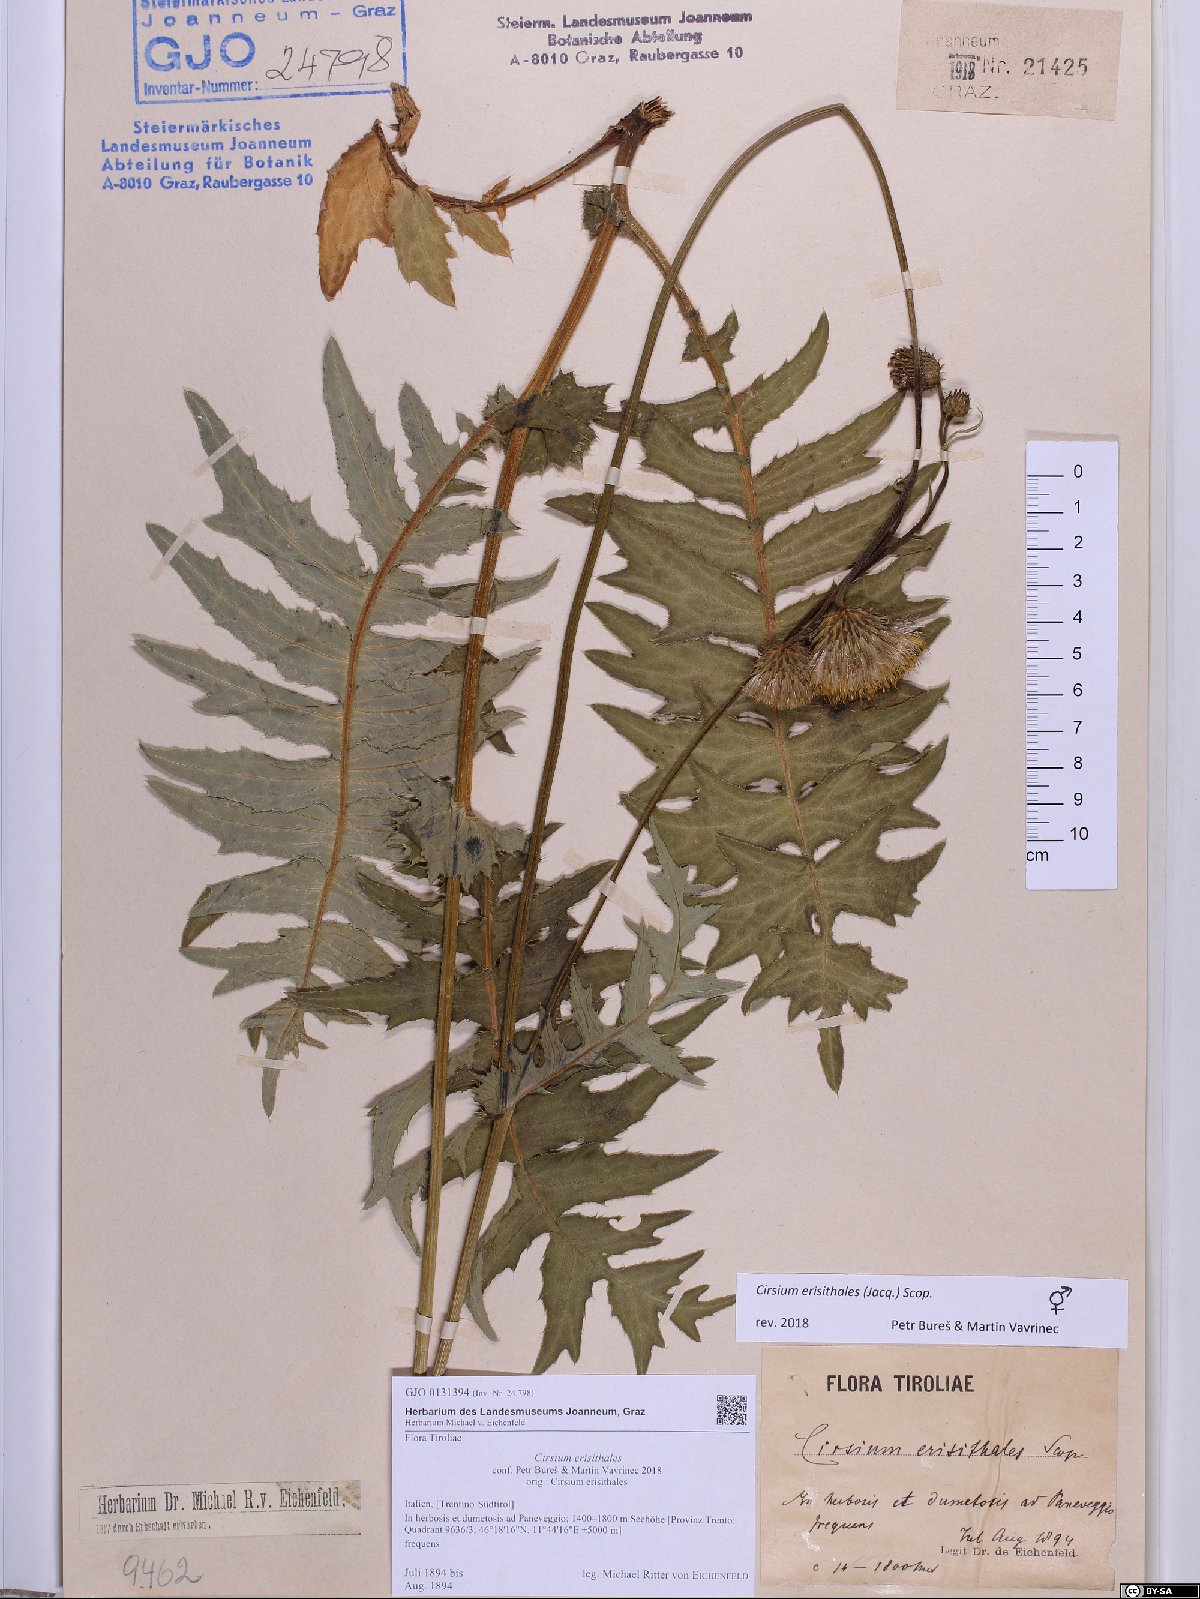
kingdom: Plantae
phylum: Tracheophyta
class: Magnoliopsida
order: Asterales
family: Asteraceae
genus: Cirsium
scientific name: Cirsium erisithales
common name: Yellow thistle
